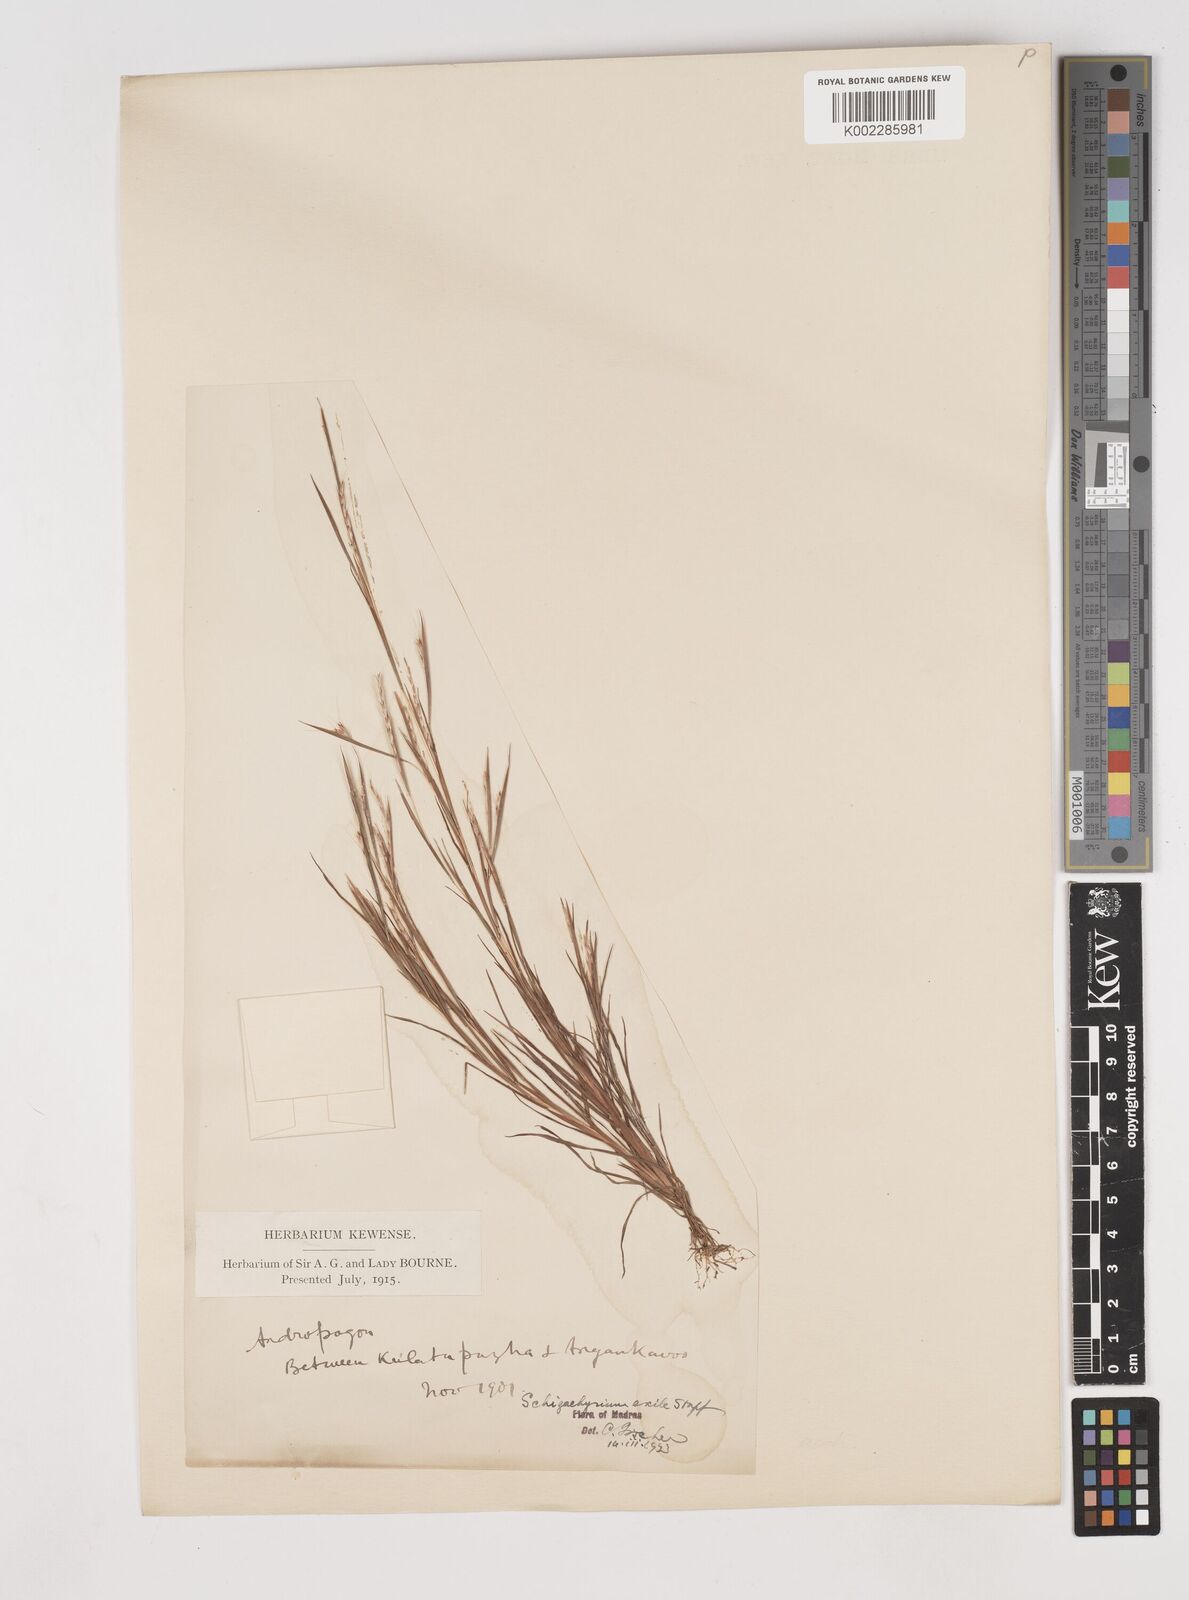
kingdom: Plantae
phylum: Tracheophyta
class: Liliopsida
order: Poales
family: Poaceae
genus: Schizachyrium
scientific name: Schizachyrium exile
